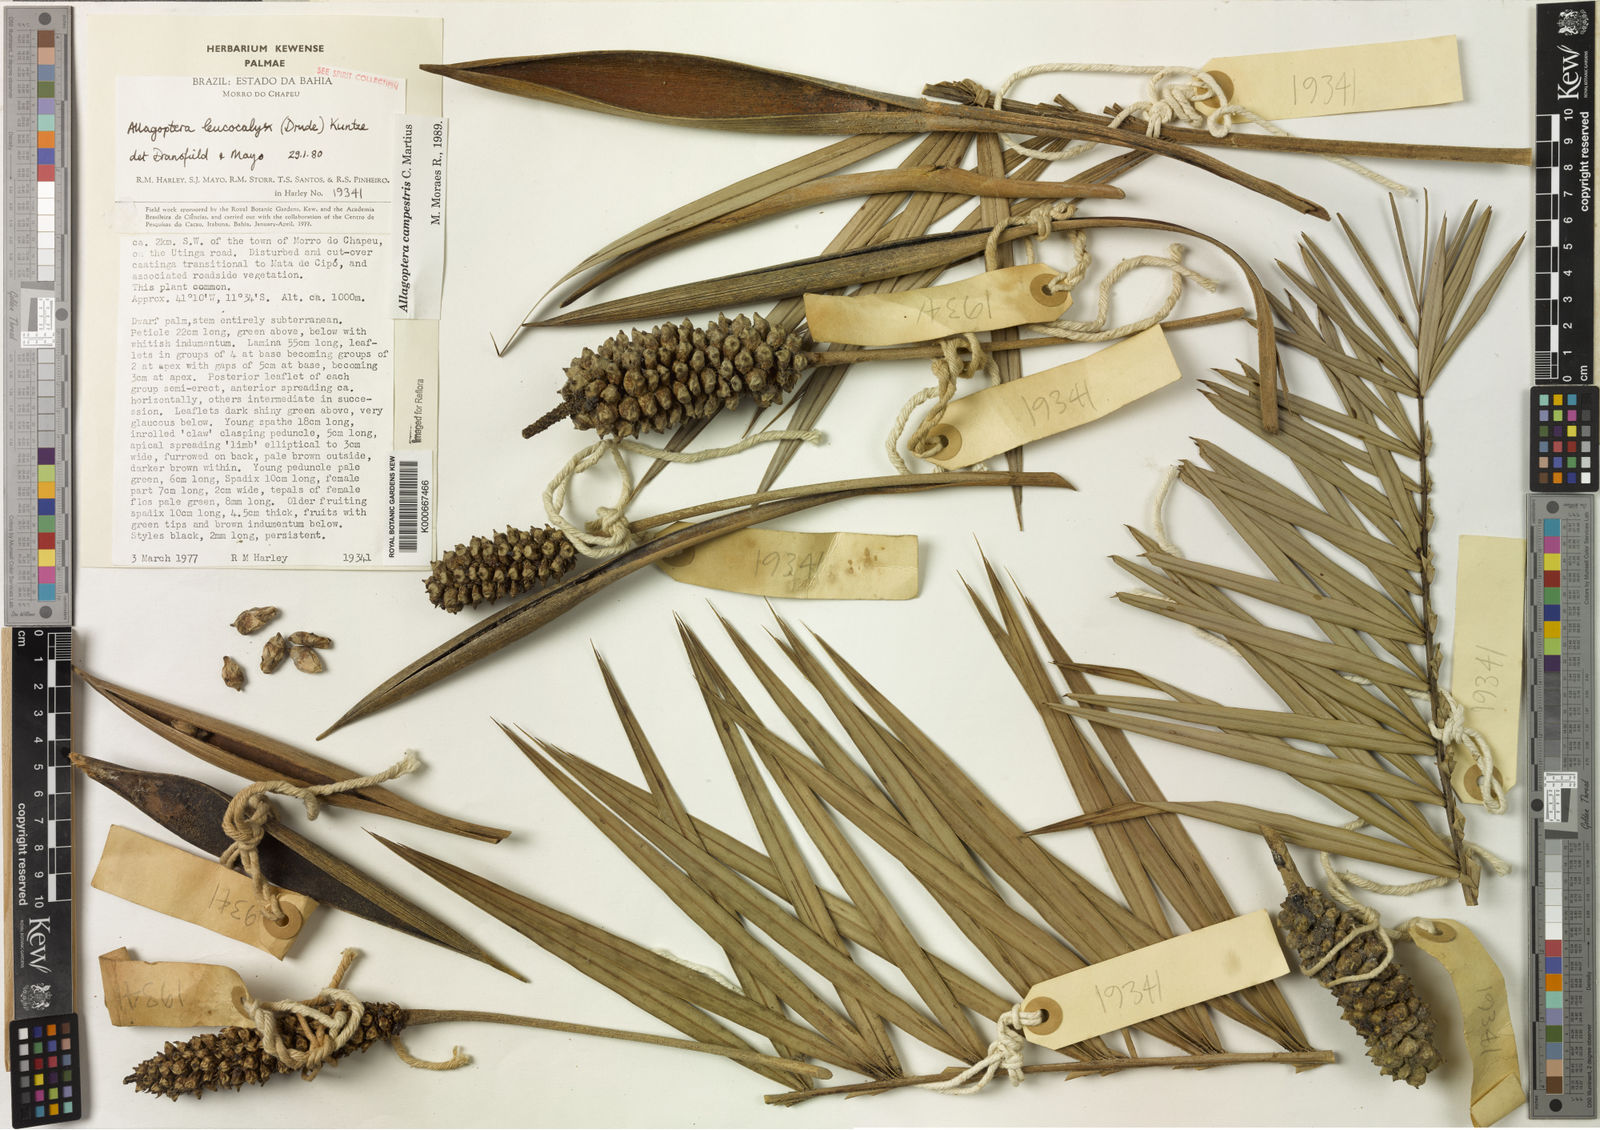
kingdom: Plantae
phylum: Tracheophyta
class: Liliopsida
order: Arecales
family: Arecaceae
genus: Allagoptera
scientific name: Allagoptera campestris
